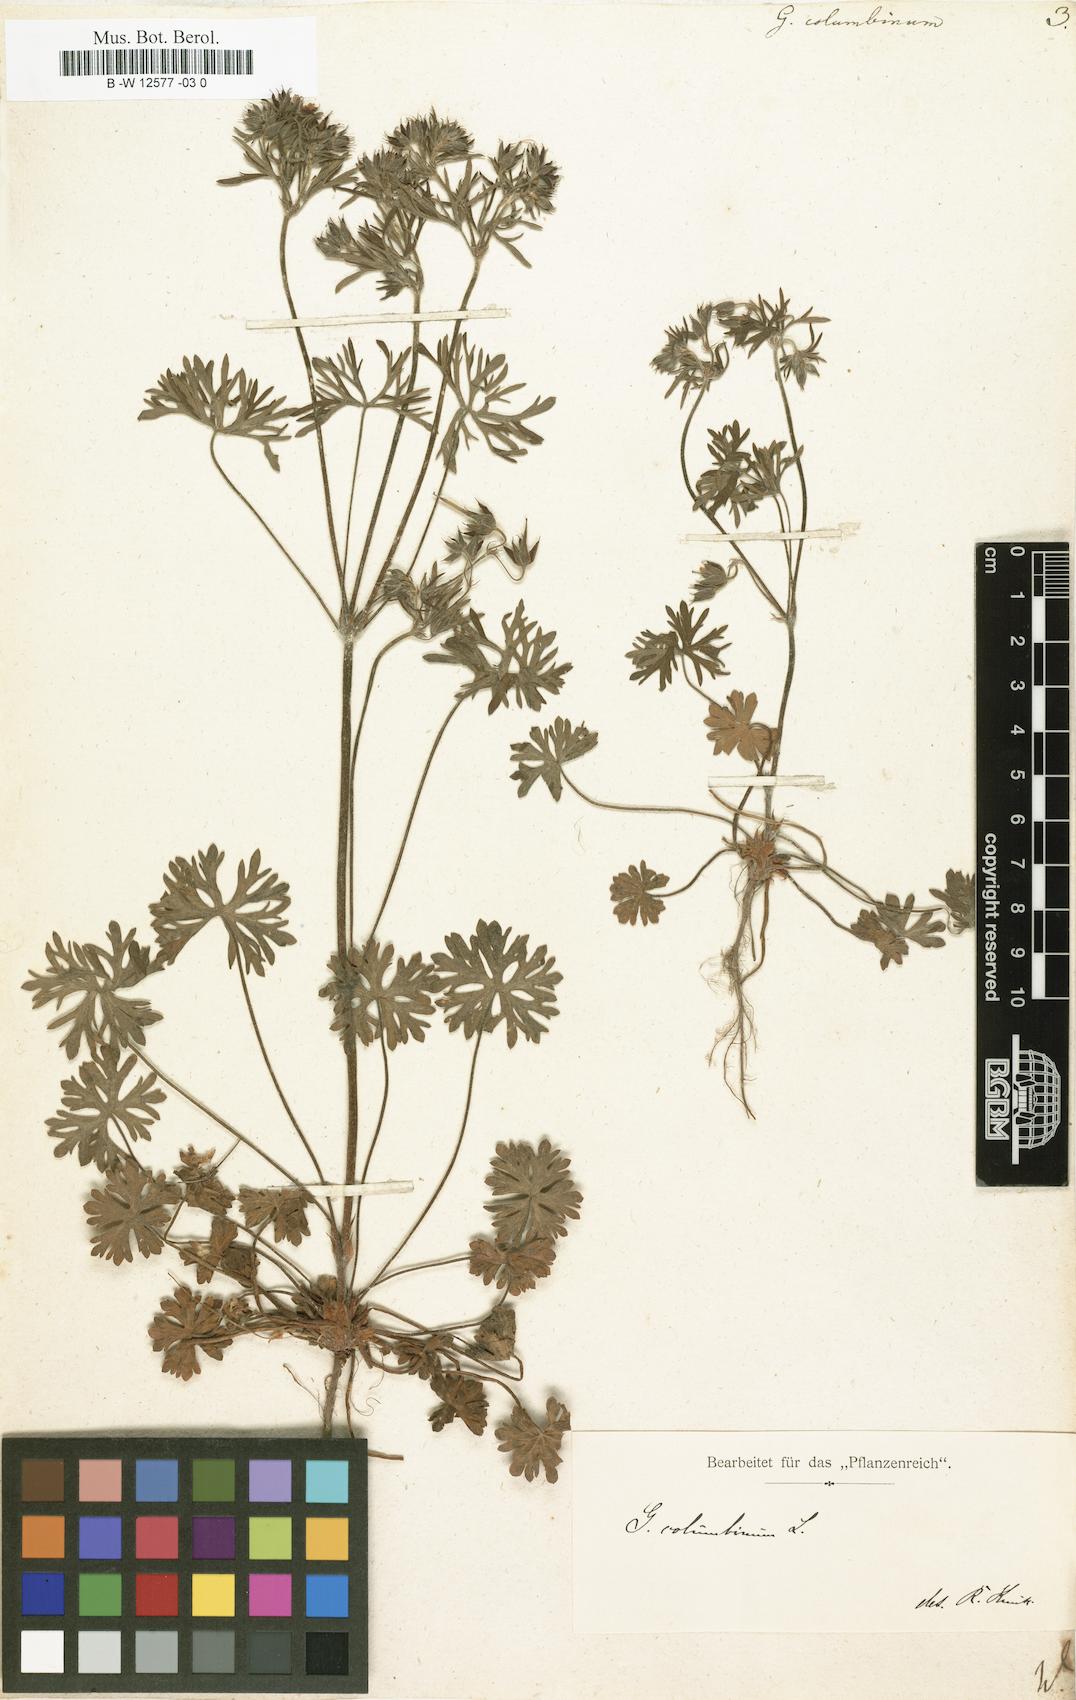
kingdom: Plantae
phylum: Tracheophyta
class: Magnoliopsida
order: Geraniales
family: Geraniaceae
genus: Geranium
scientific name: Geranium columbinum
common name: Long-stalked crane's-bill
